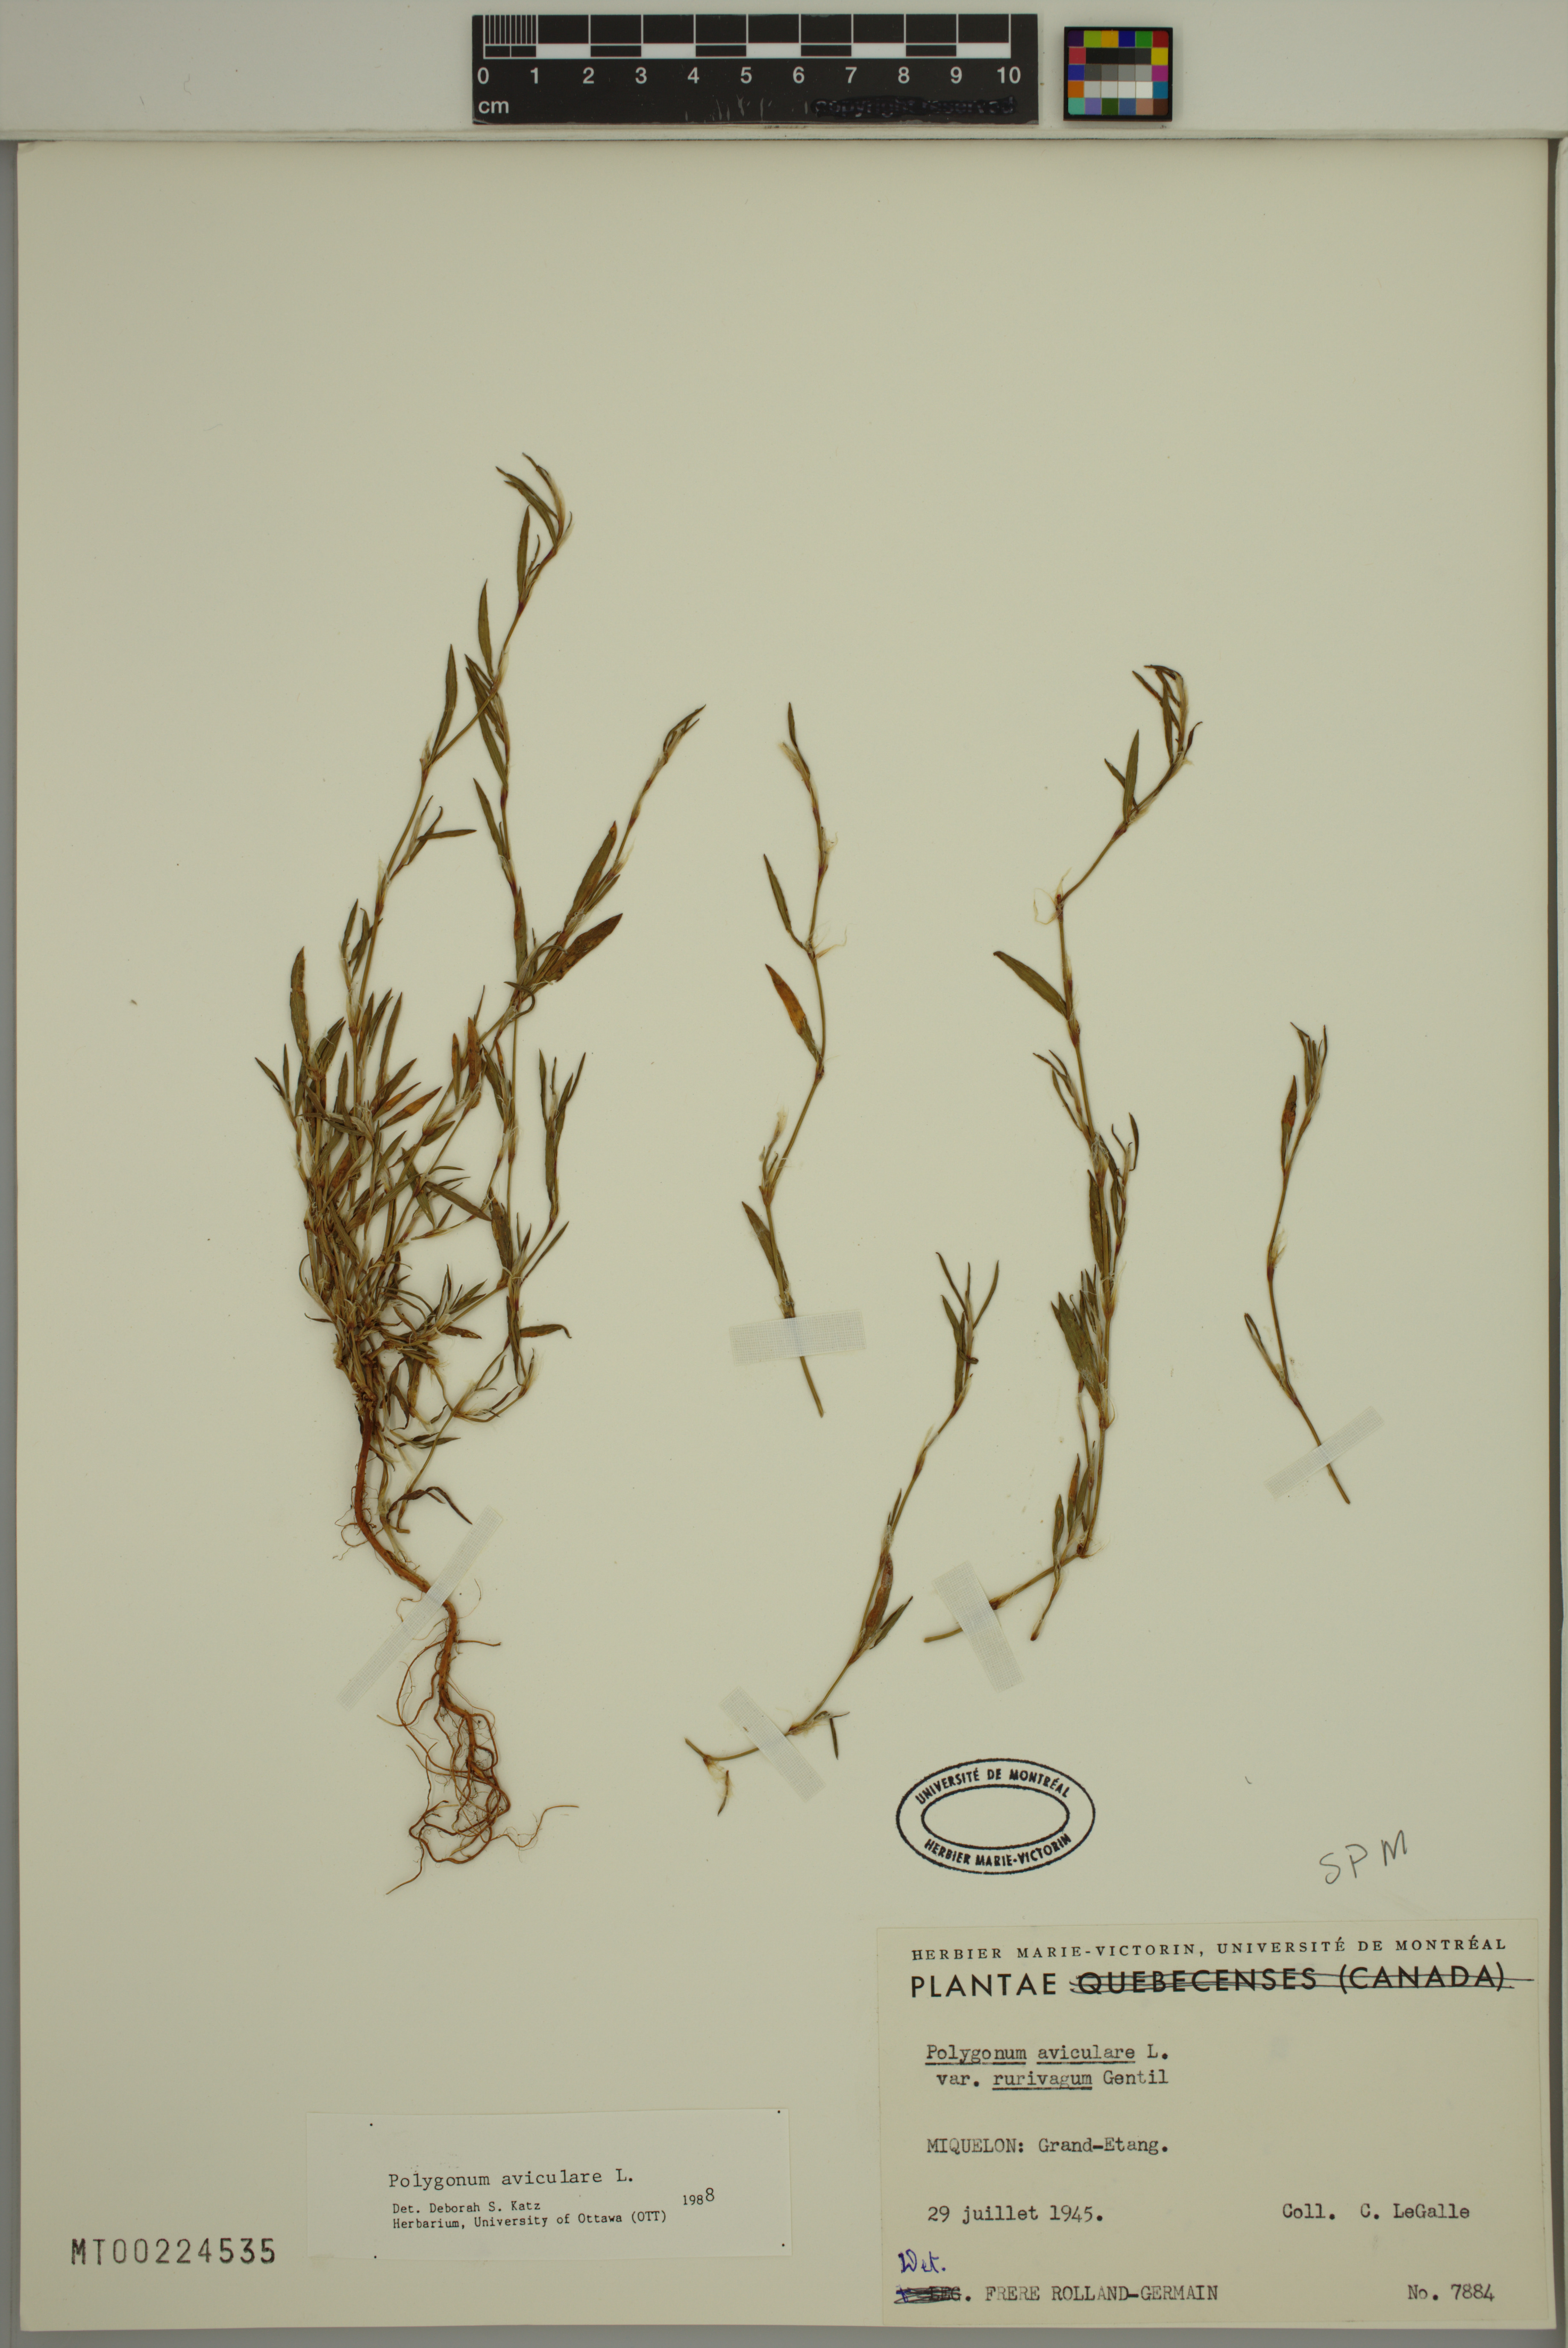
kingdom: Plantae
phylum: Tracheophyta
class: Magnoliopsida
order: Caryophyllales
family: Polygonaceae
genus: Polygonum
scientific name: Polygonum aviculare
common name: Prostrate knotweed
